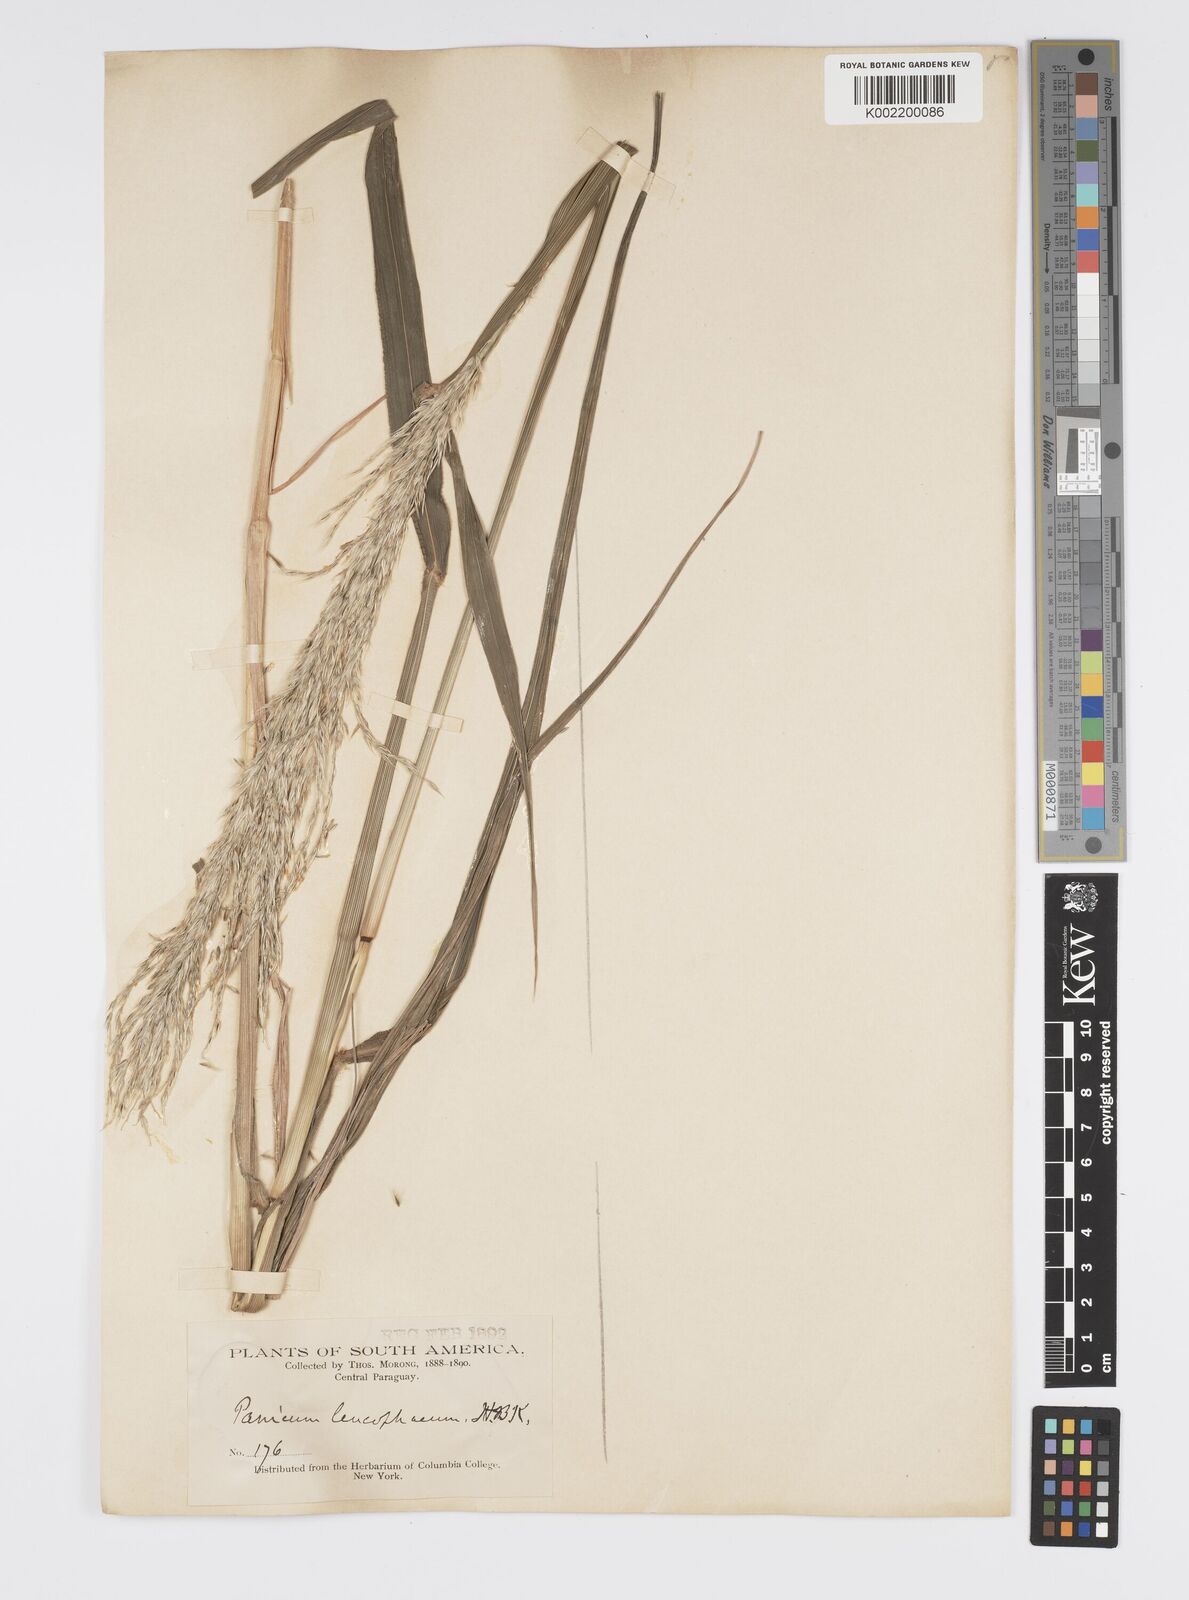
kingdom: Plantae
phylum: Tracheophyta
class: Liliopsida
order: Poales
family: Poaceae
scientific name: Poaceae
